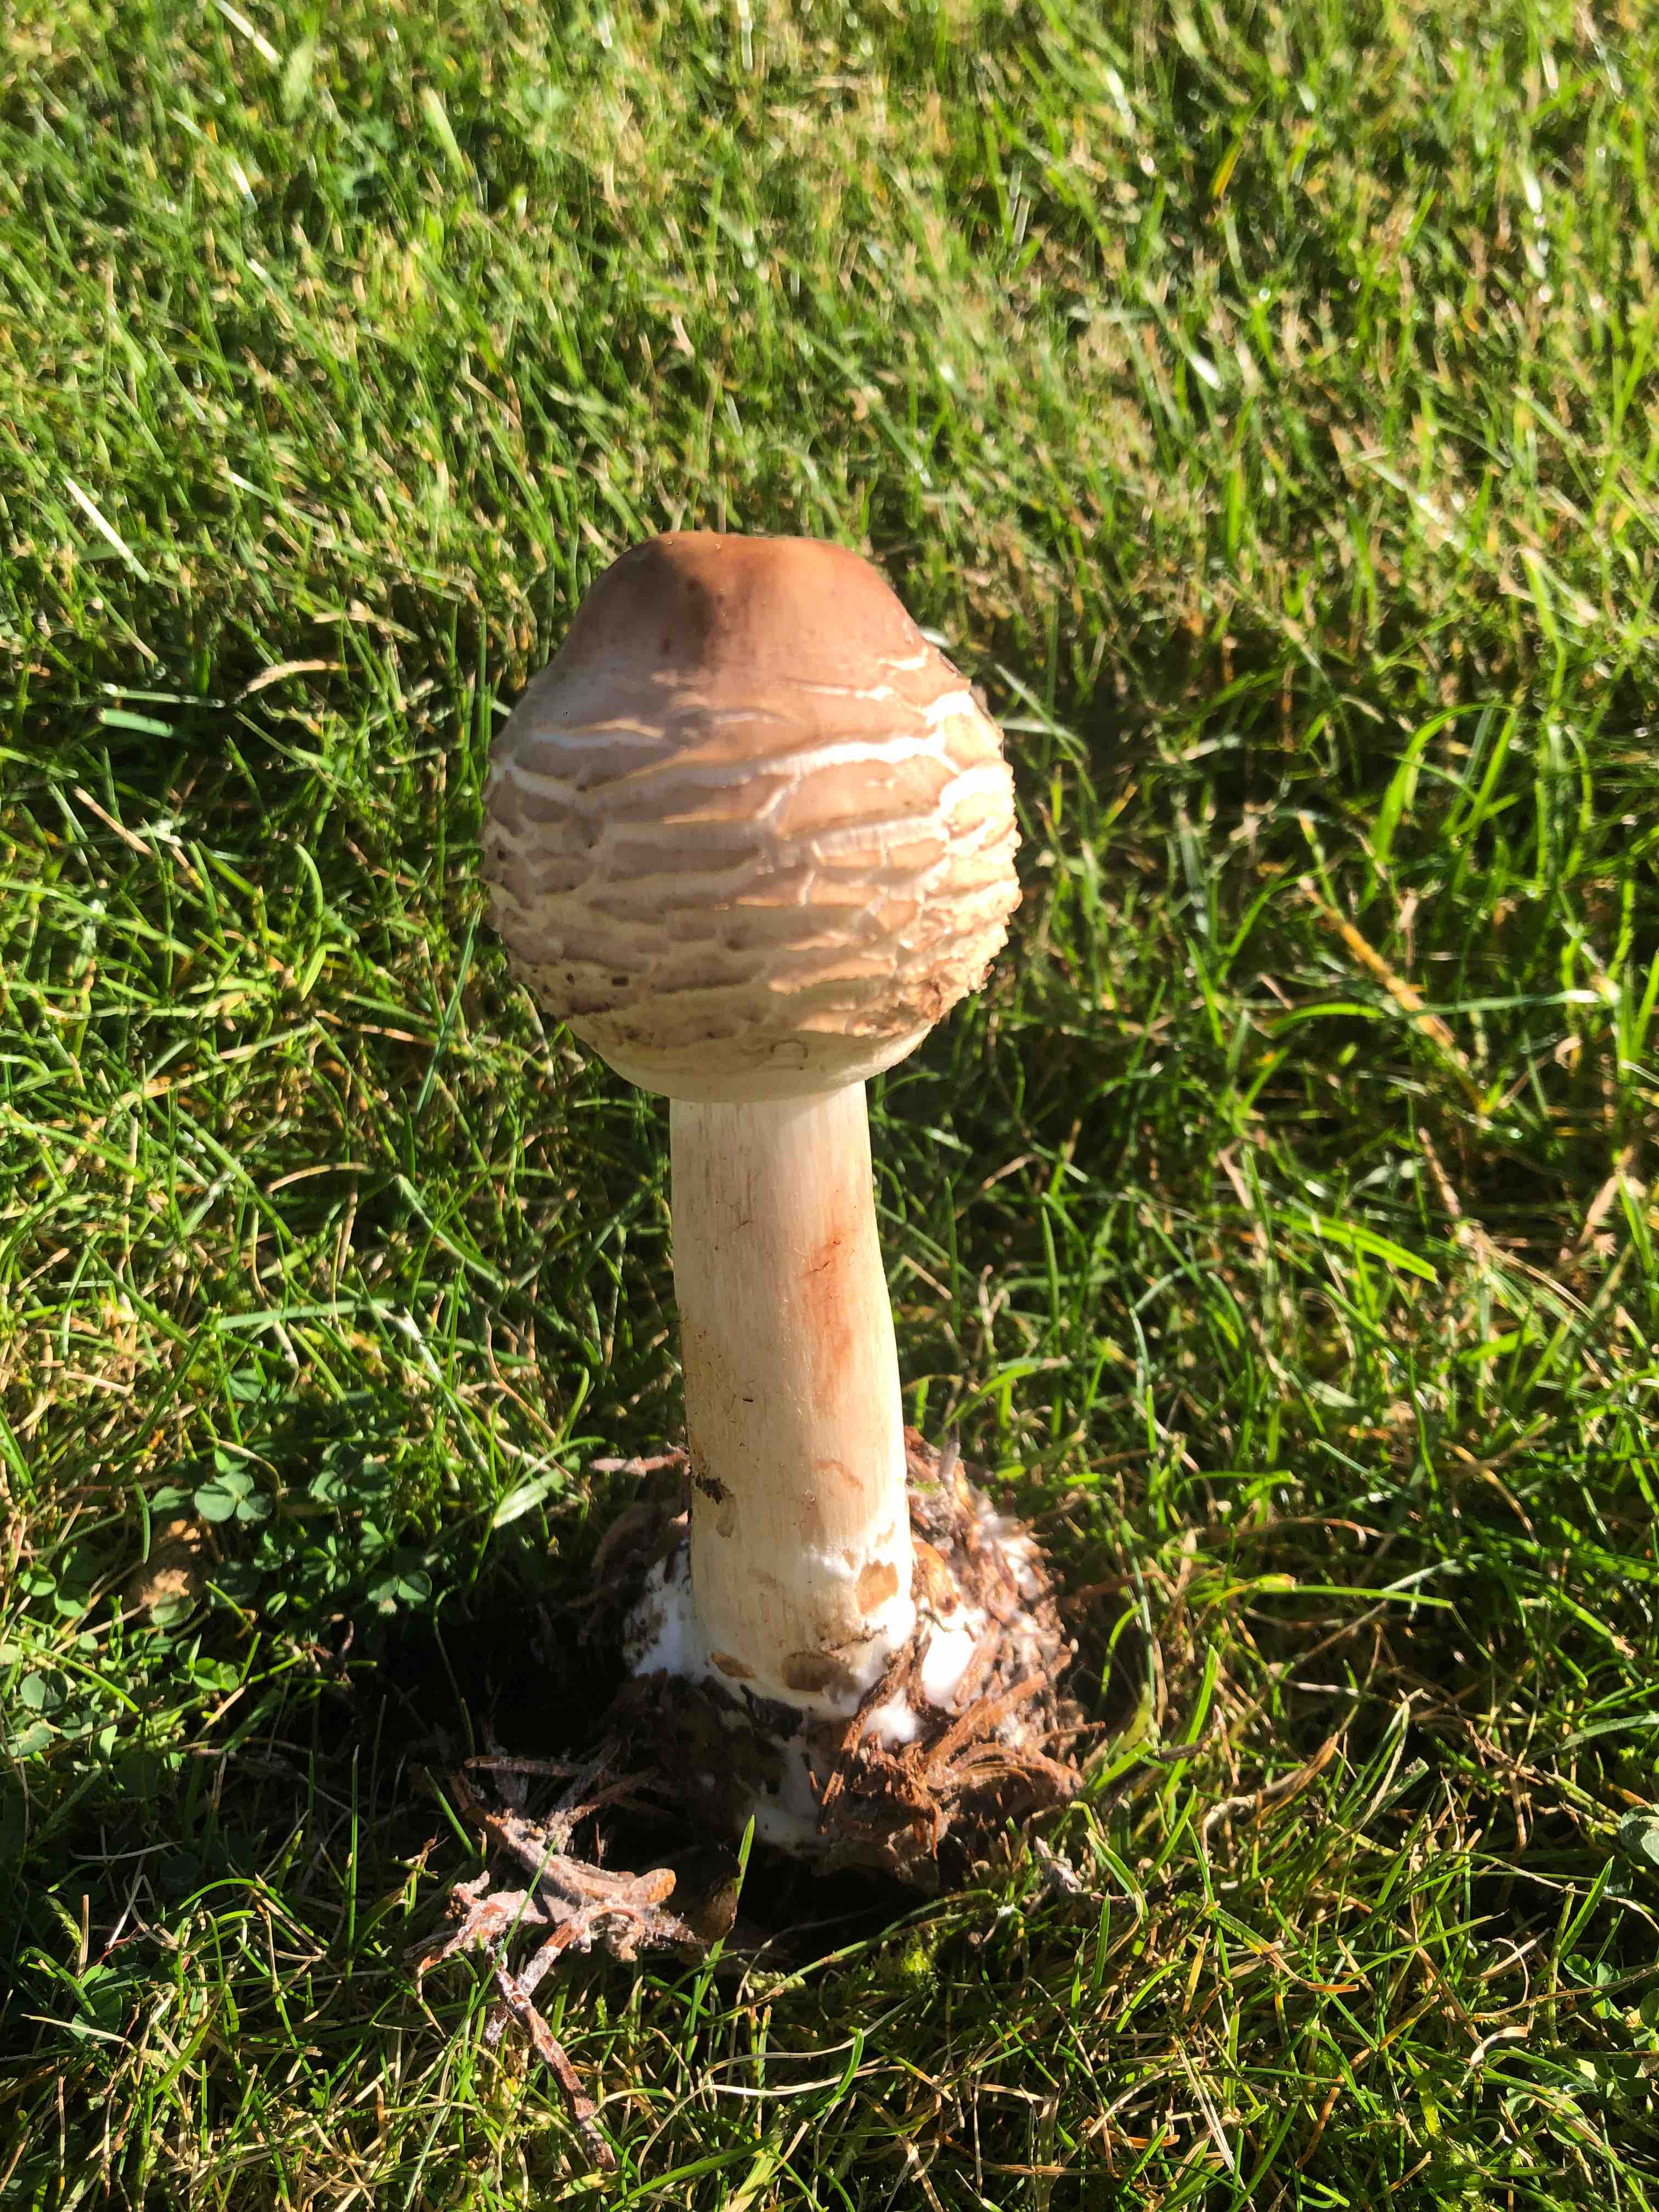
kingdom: Fungi
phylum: Basidiomycota
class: Agaricomycetes
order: Agaricales
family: Agaricaceae
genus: Chlorophyllum
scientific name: Chlorophyllum
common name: rabarberhat
